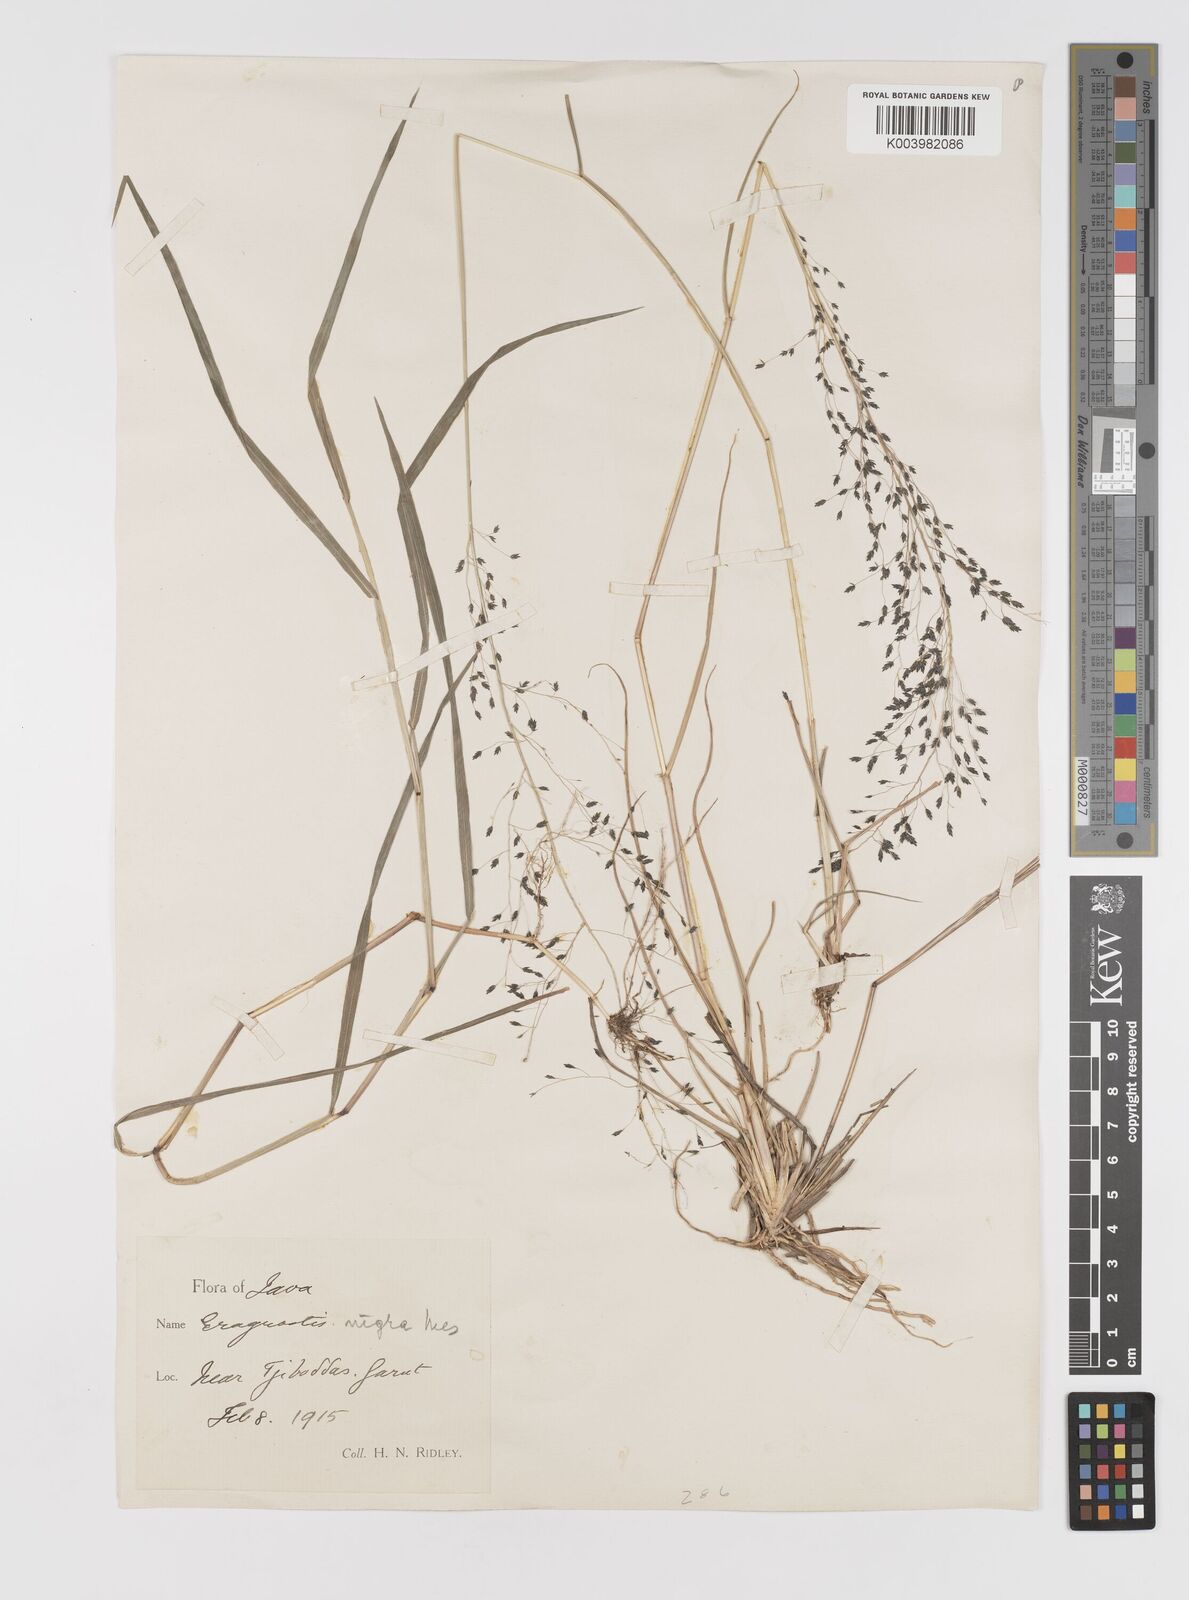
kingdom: Plantae
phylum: Tracheophyta
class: Liliopsida
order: Poales
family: Poaceae
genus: Eragrostis
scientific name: Eragrostis nigra
